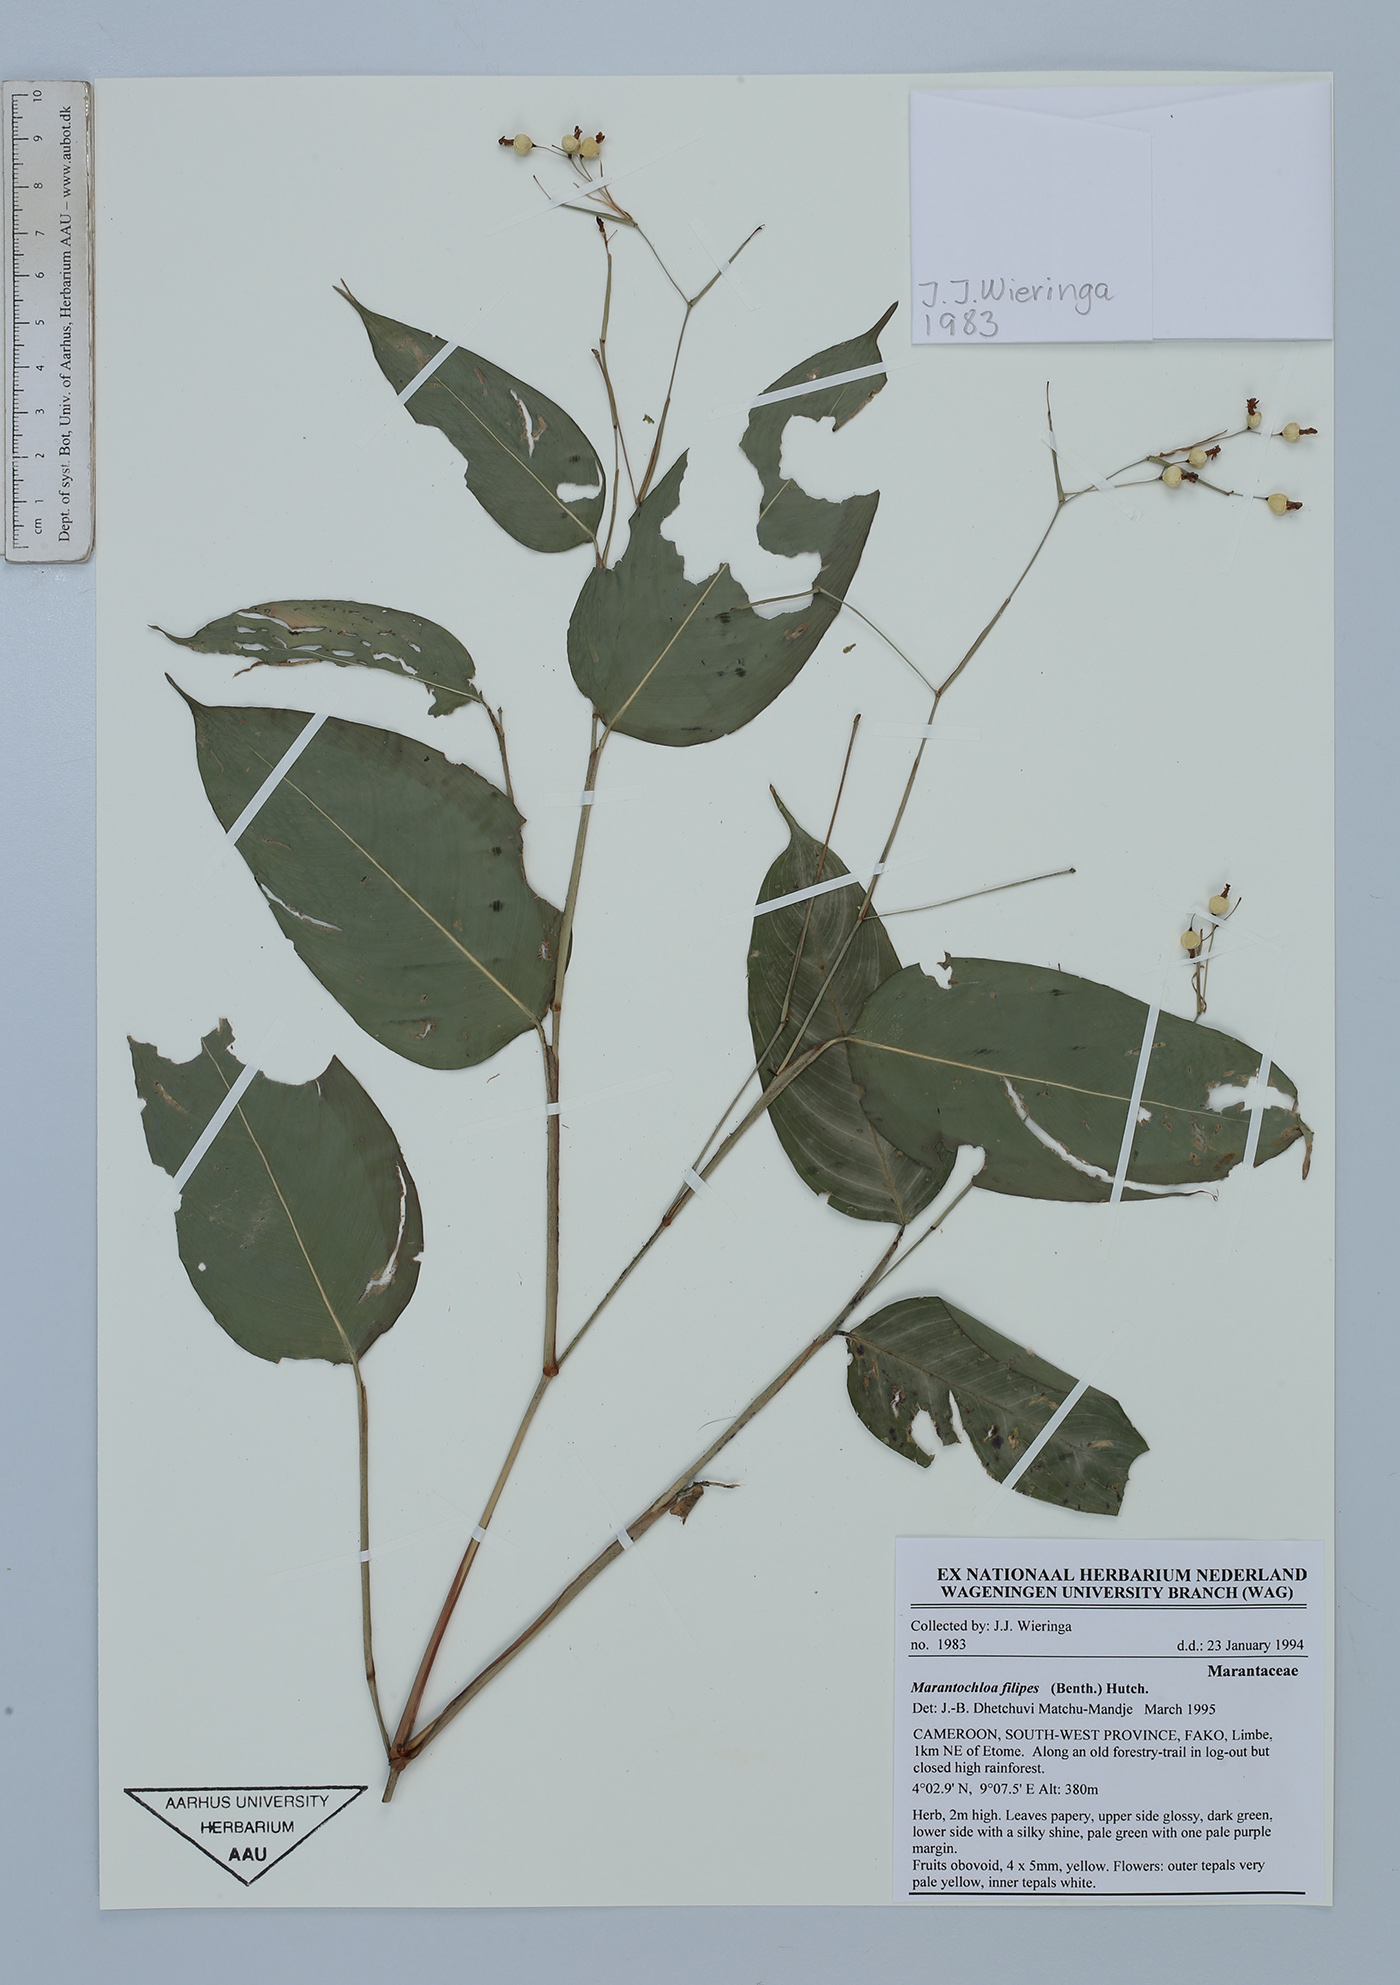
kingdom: Plantae
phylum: Tracheophyta
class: Liliopsida
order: Zingiberales
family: Marantaceae
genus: Marantochloa
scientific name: Marantochloa filipes
